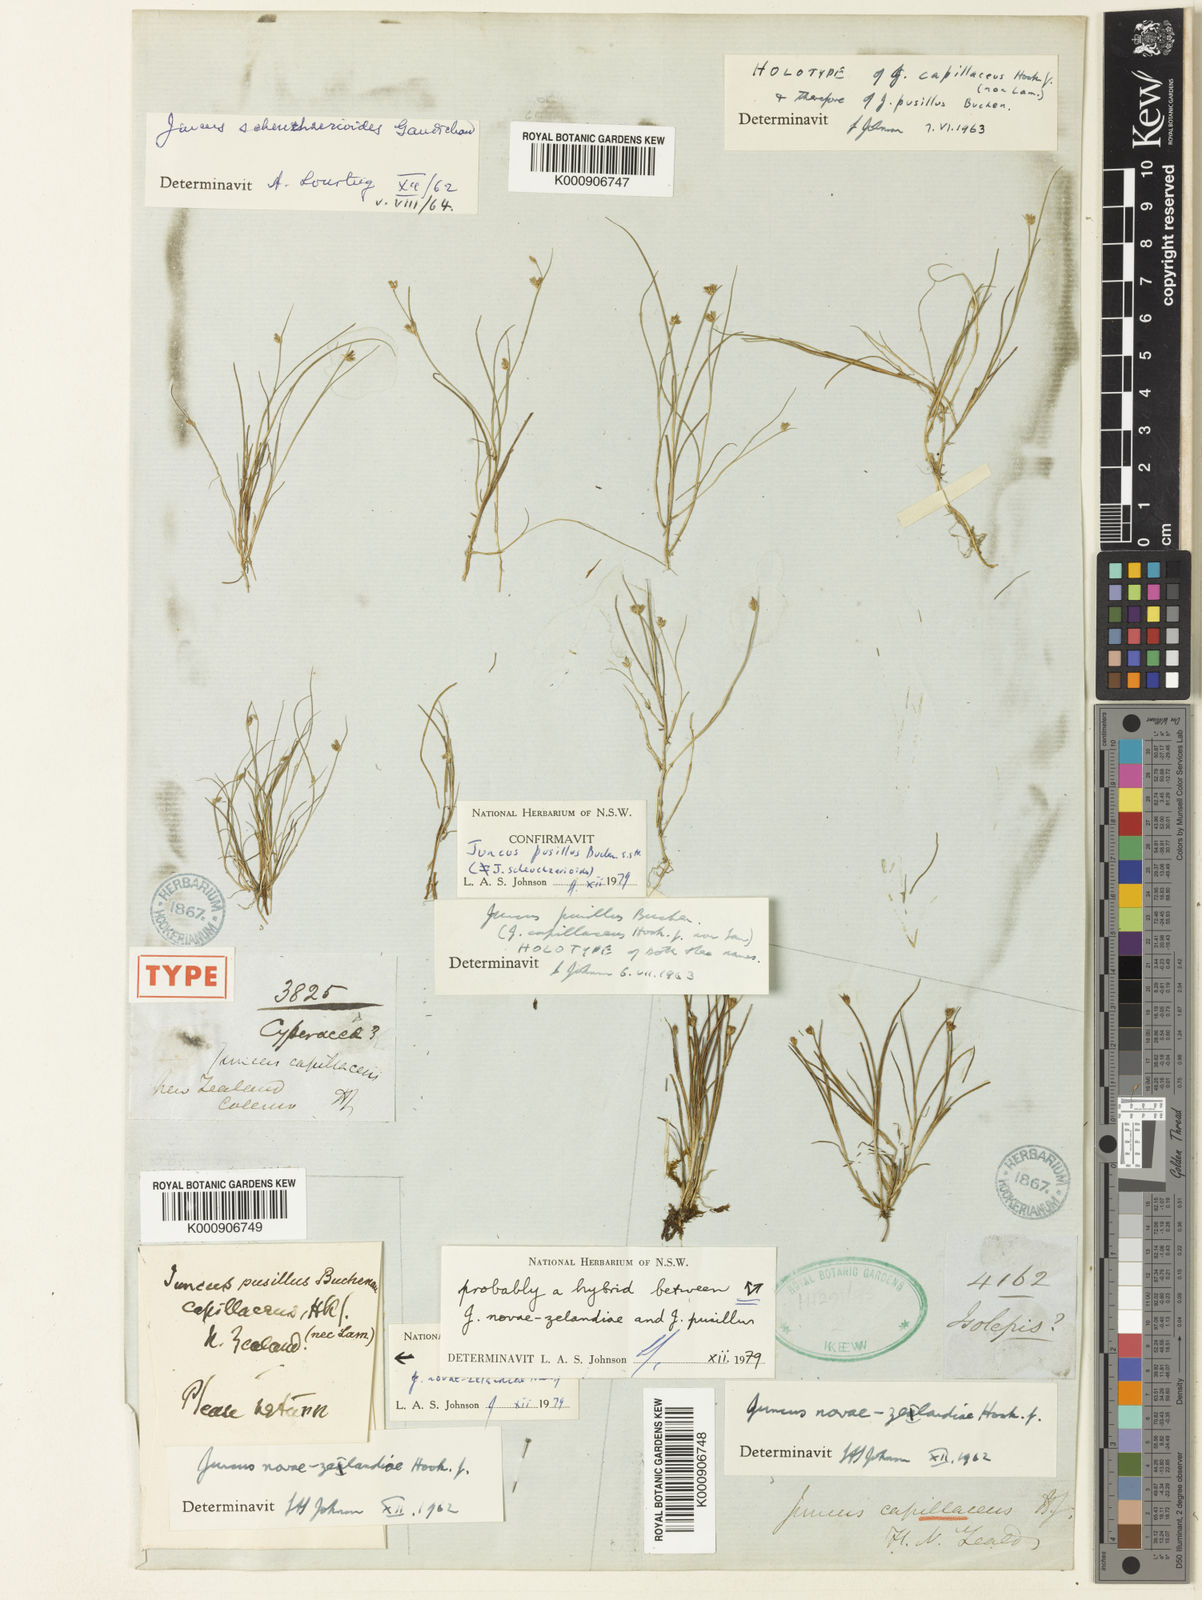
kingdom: Plantae
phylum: Tracheophyta
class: Liliopsida
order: Poales
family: Juncaceae
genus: Juncus
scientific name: Juncus pusillus
